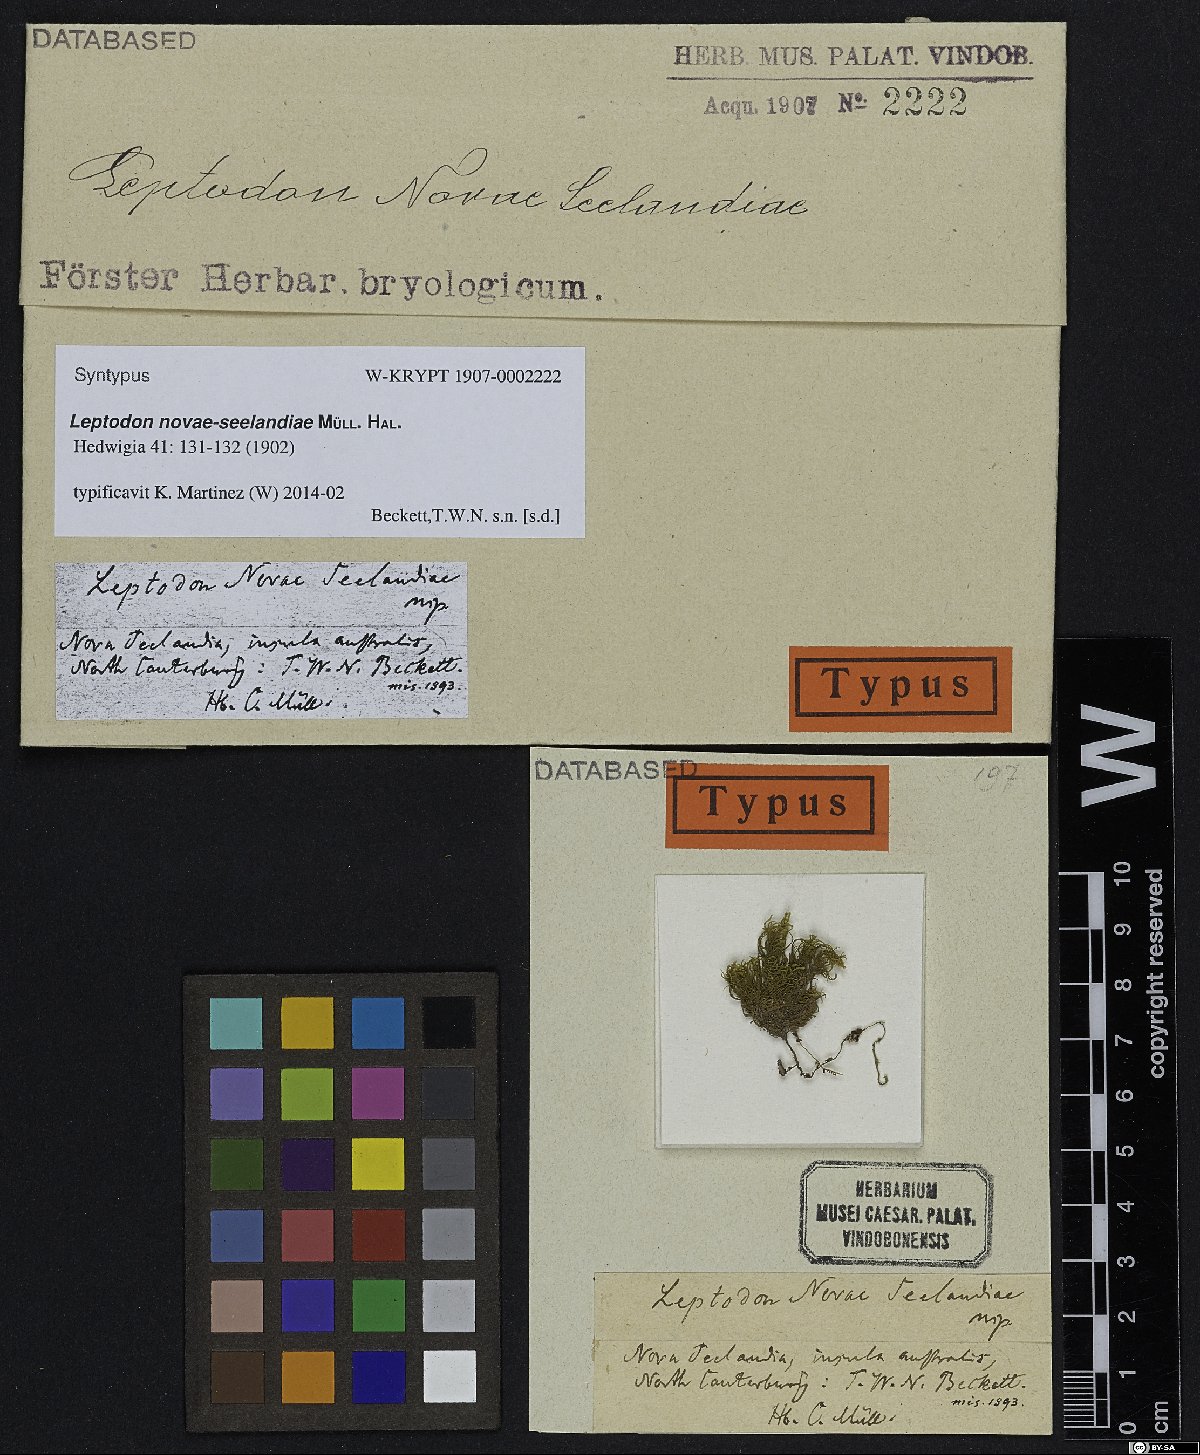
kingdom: Plantae
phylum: Bryophyta
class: Bryopsida
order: Hypnales
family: Neckeraceae
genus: Leptodon
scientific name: Leptodon smithii
